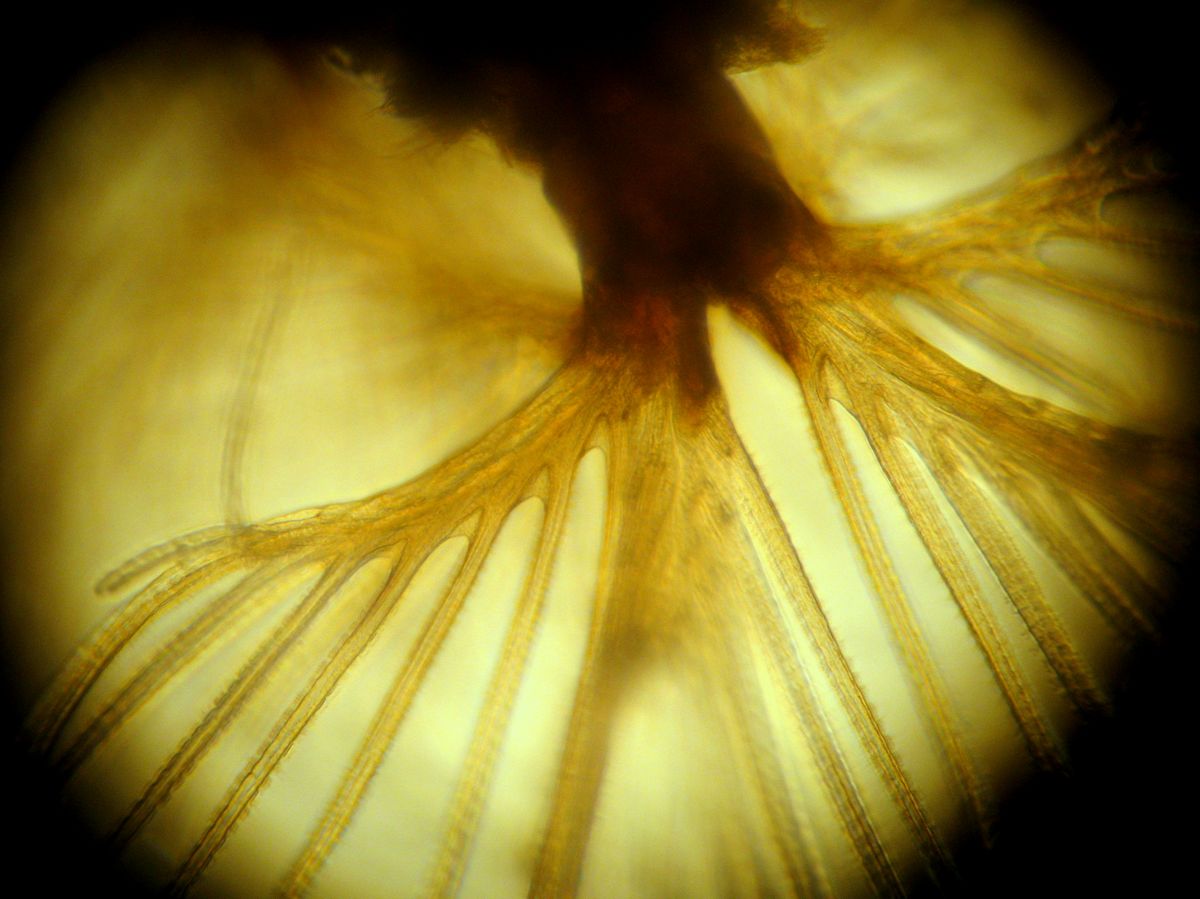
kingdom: Animalia
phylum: Annelida
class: Polychaeta
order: Sabellida
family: Fabriciidae
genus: Fabricia
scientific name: Fabricia stellaris
